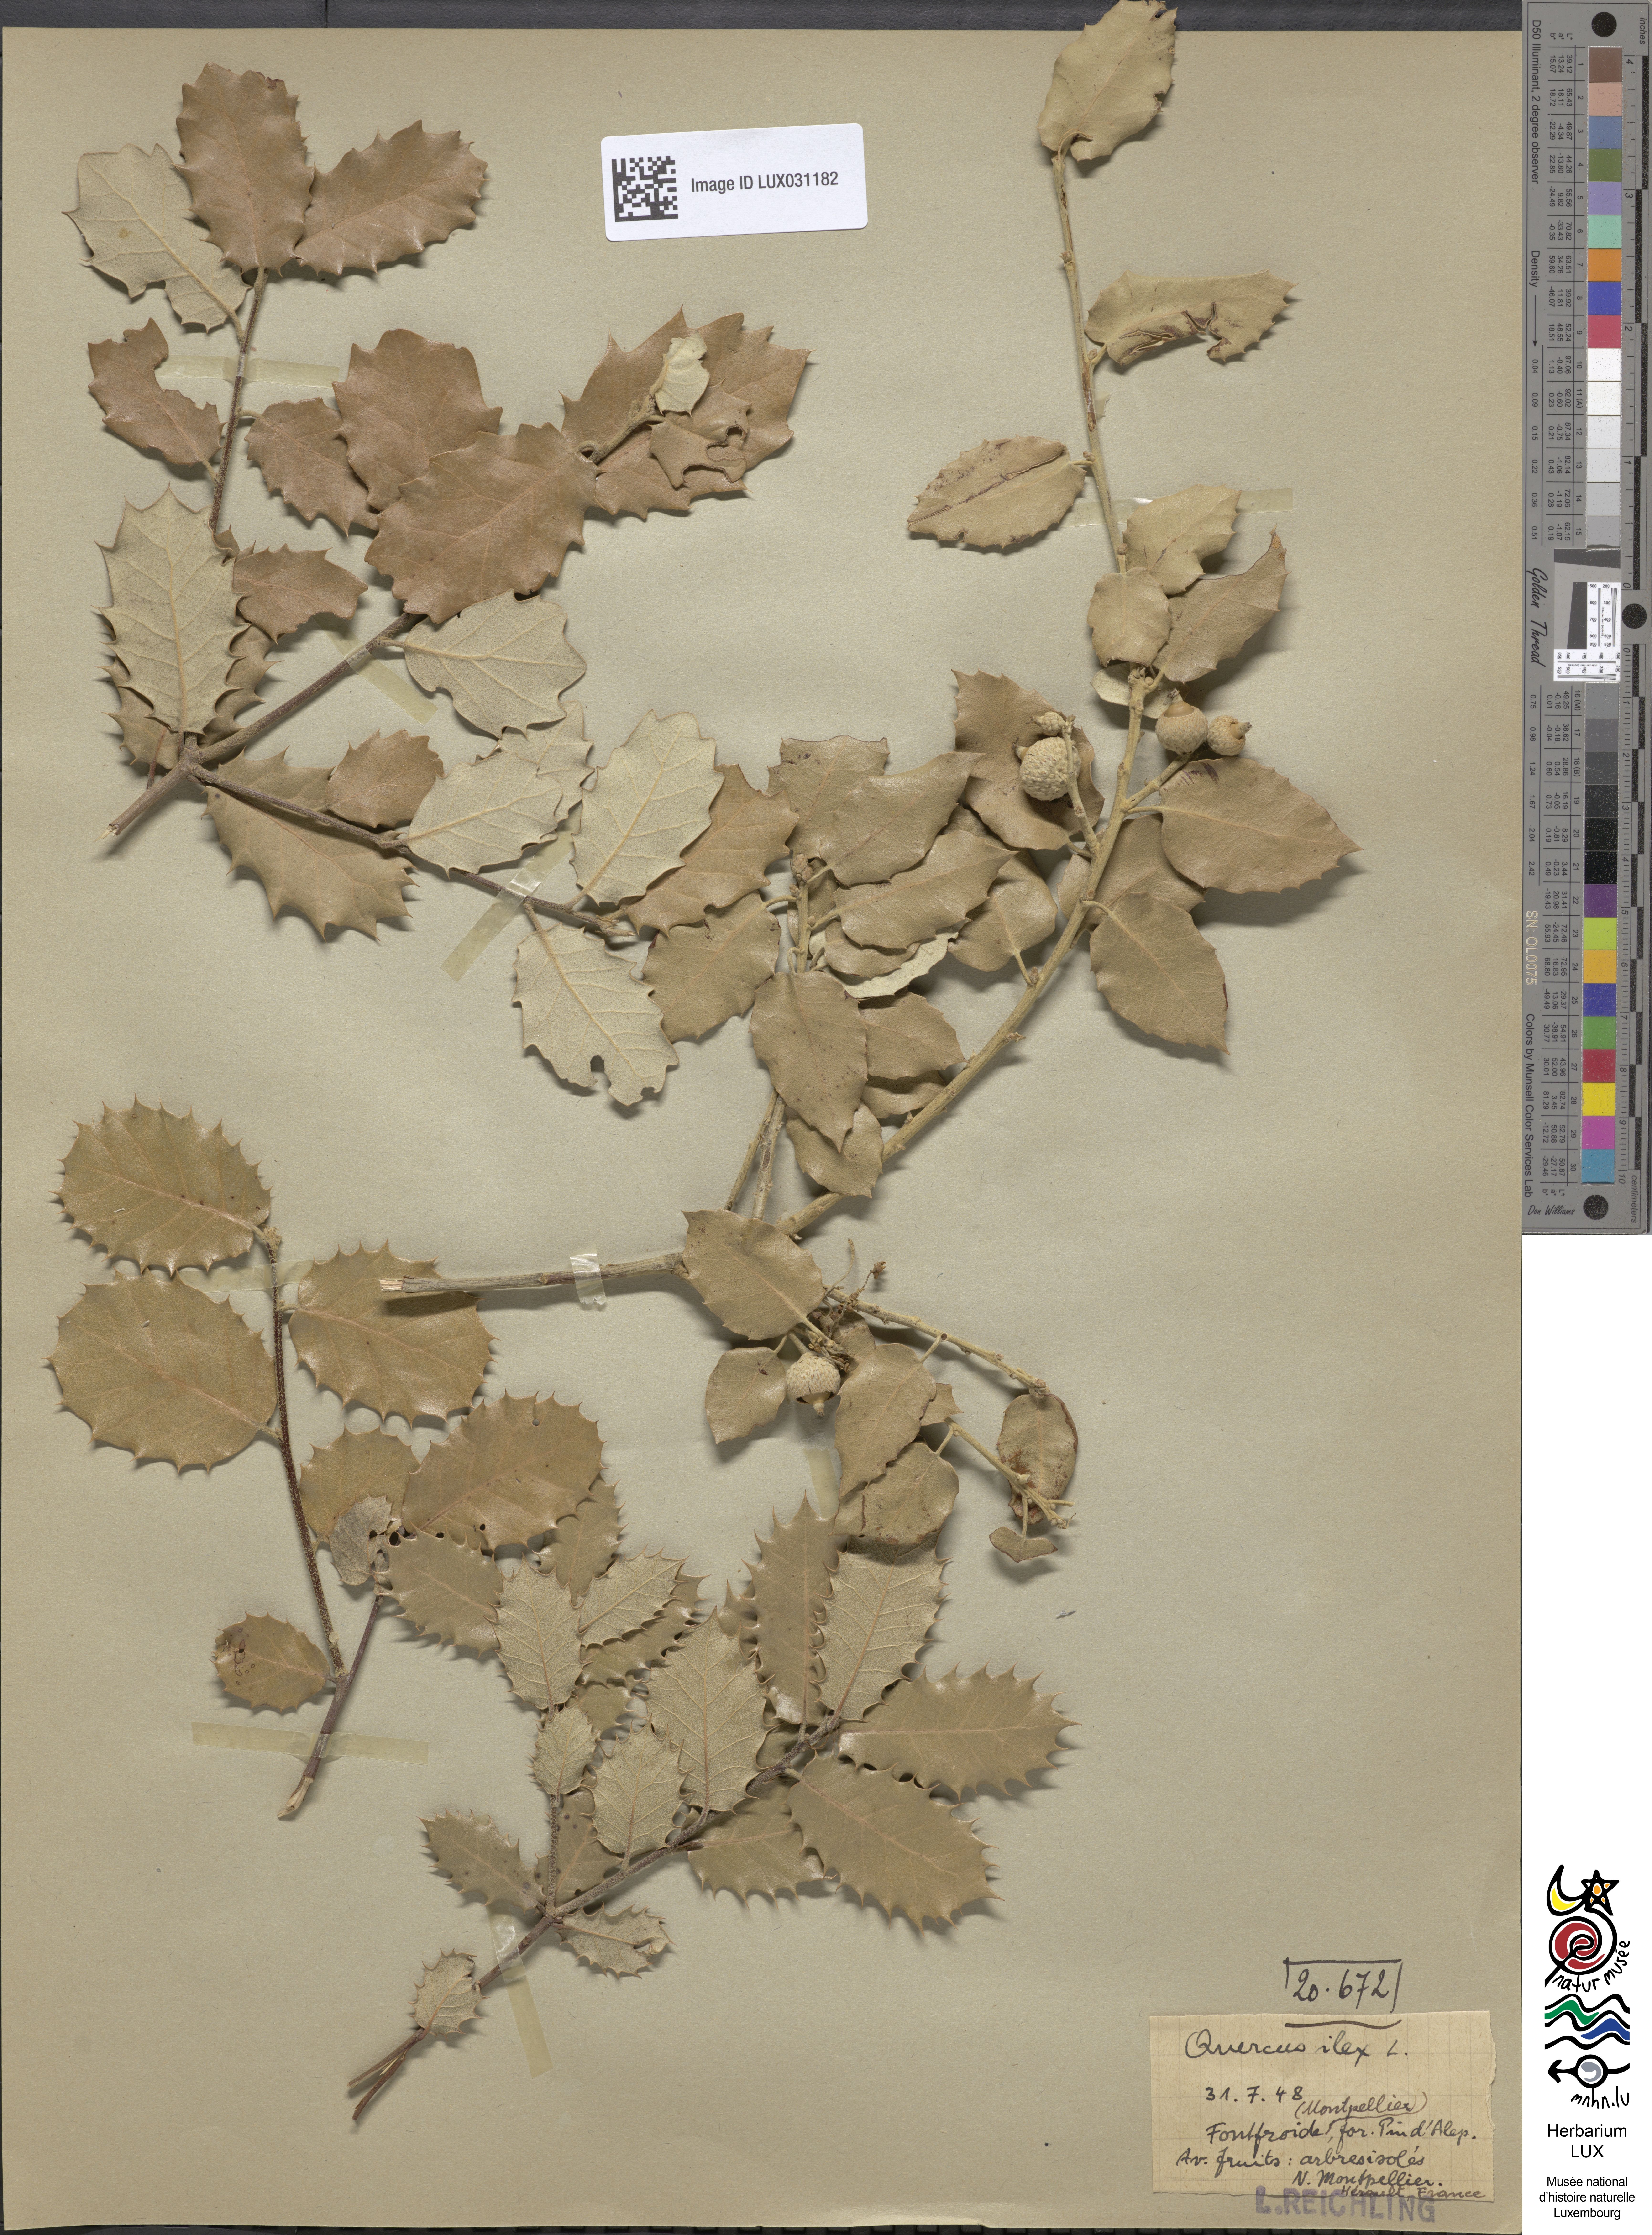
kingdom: Plantae
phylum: Tracheophyta
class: Magnoliopsida
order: Fagales
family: Fagaceae
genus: Quercus
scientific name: Quercus ilex
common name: Evergreen oak
